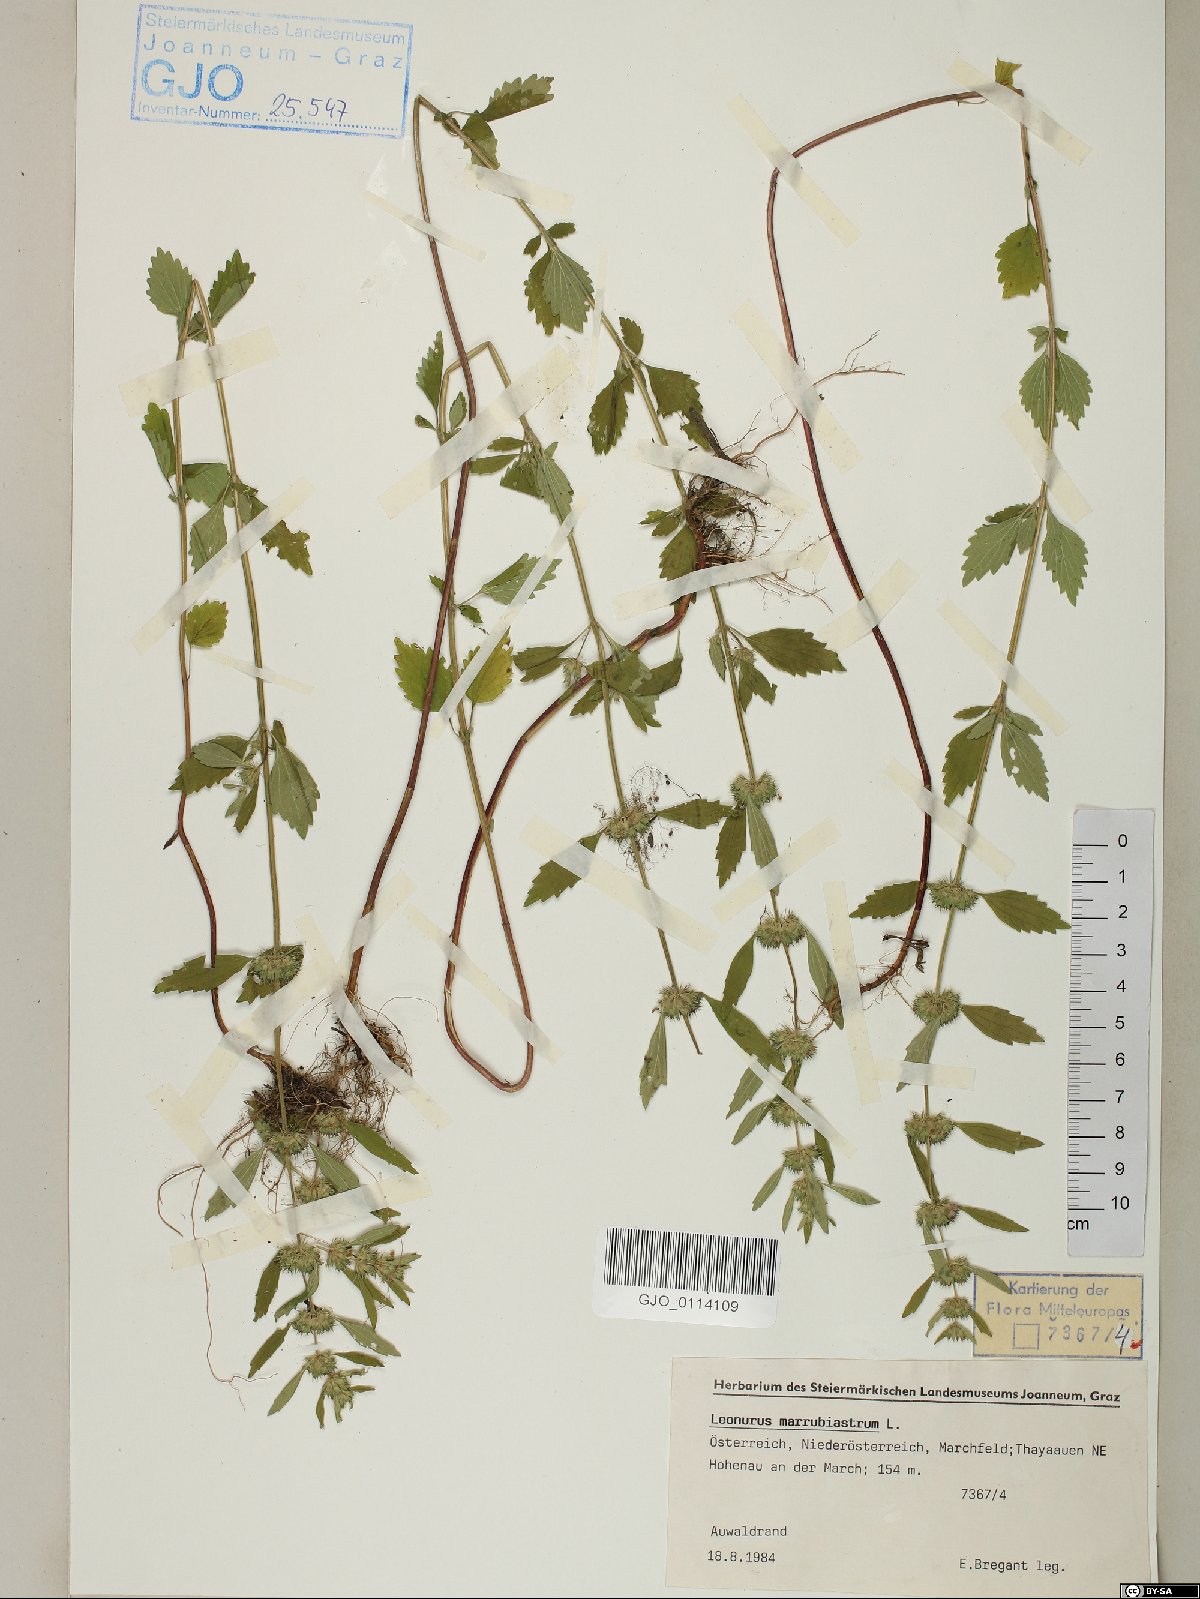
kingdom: Plantae
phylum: Tracheophyta
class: Magnoliopsida
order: Lamiales
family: Lamiaceae
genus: Chaiturus
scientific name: Chaiturus marrubiastrum
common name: Lion's tail
